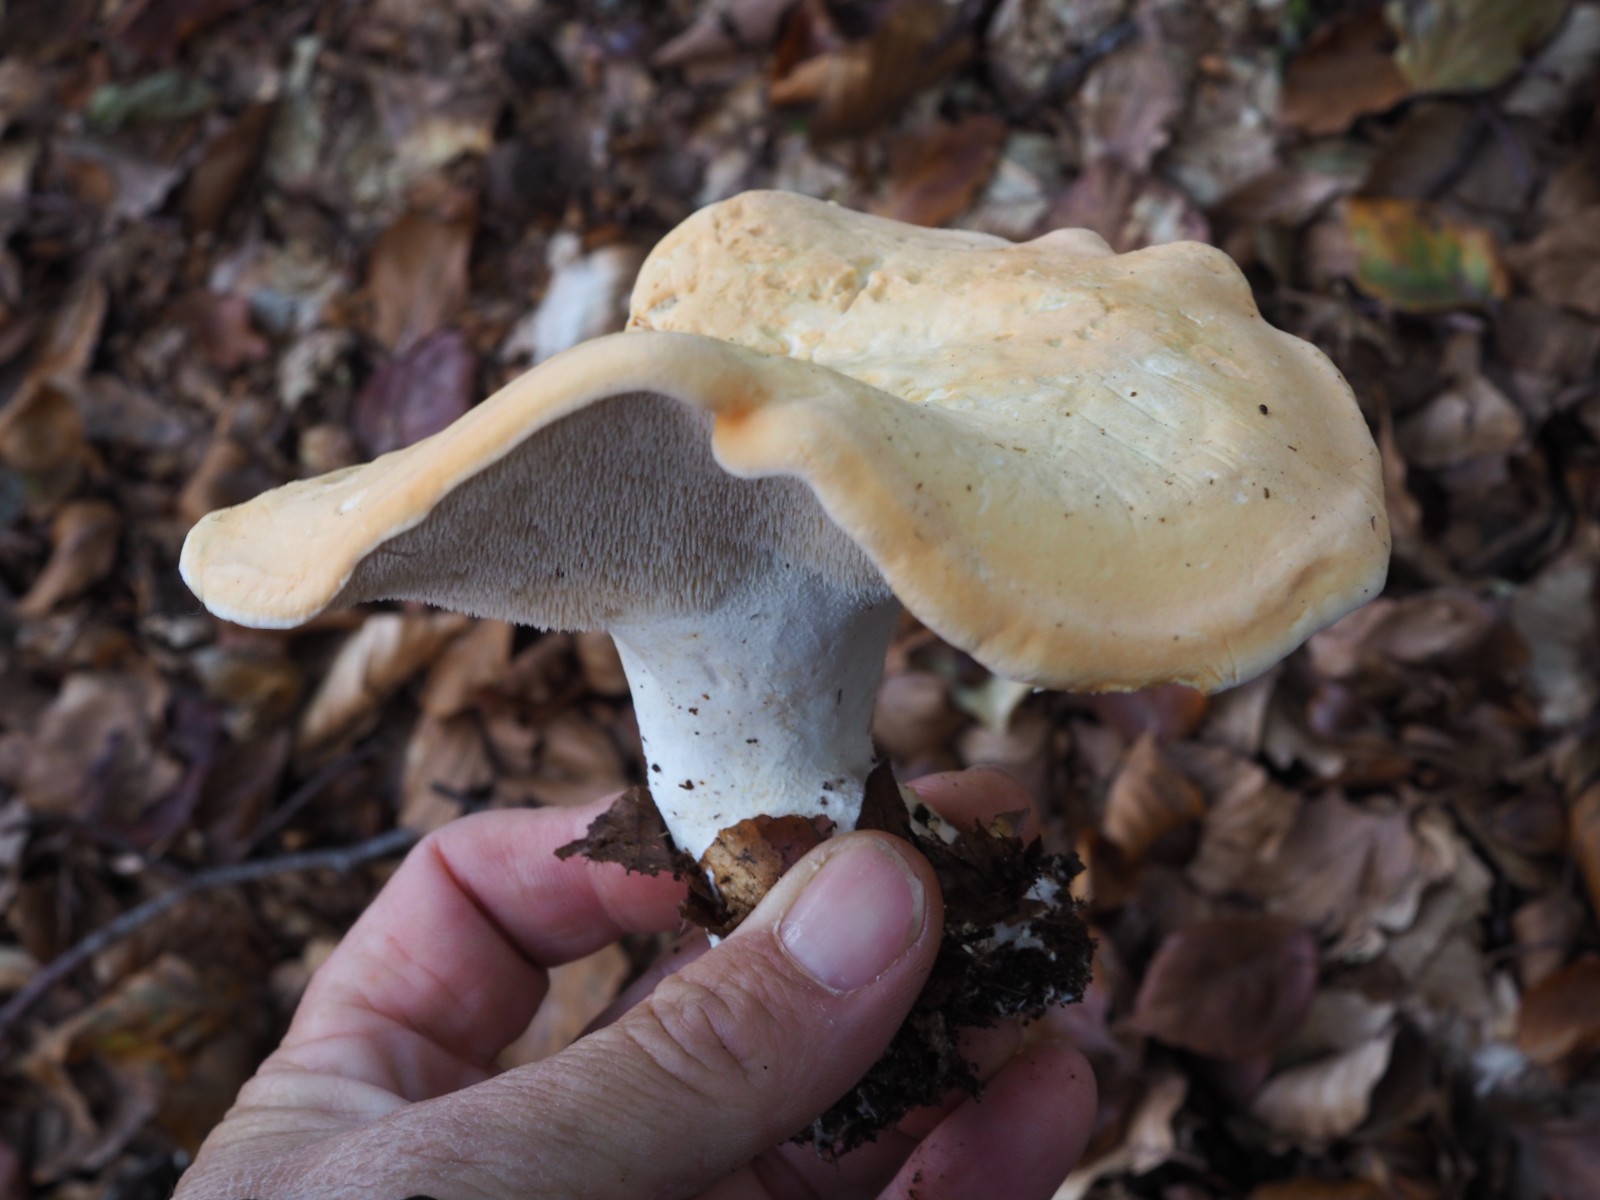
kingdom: Fungi
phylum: Basidiomycota
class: Agaricomycetes
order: Cantharellales
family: Hydnaceae
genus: Hydnum
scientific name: Hydnum repandum
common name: almindelig pigsvamp
